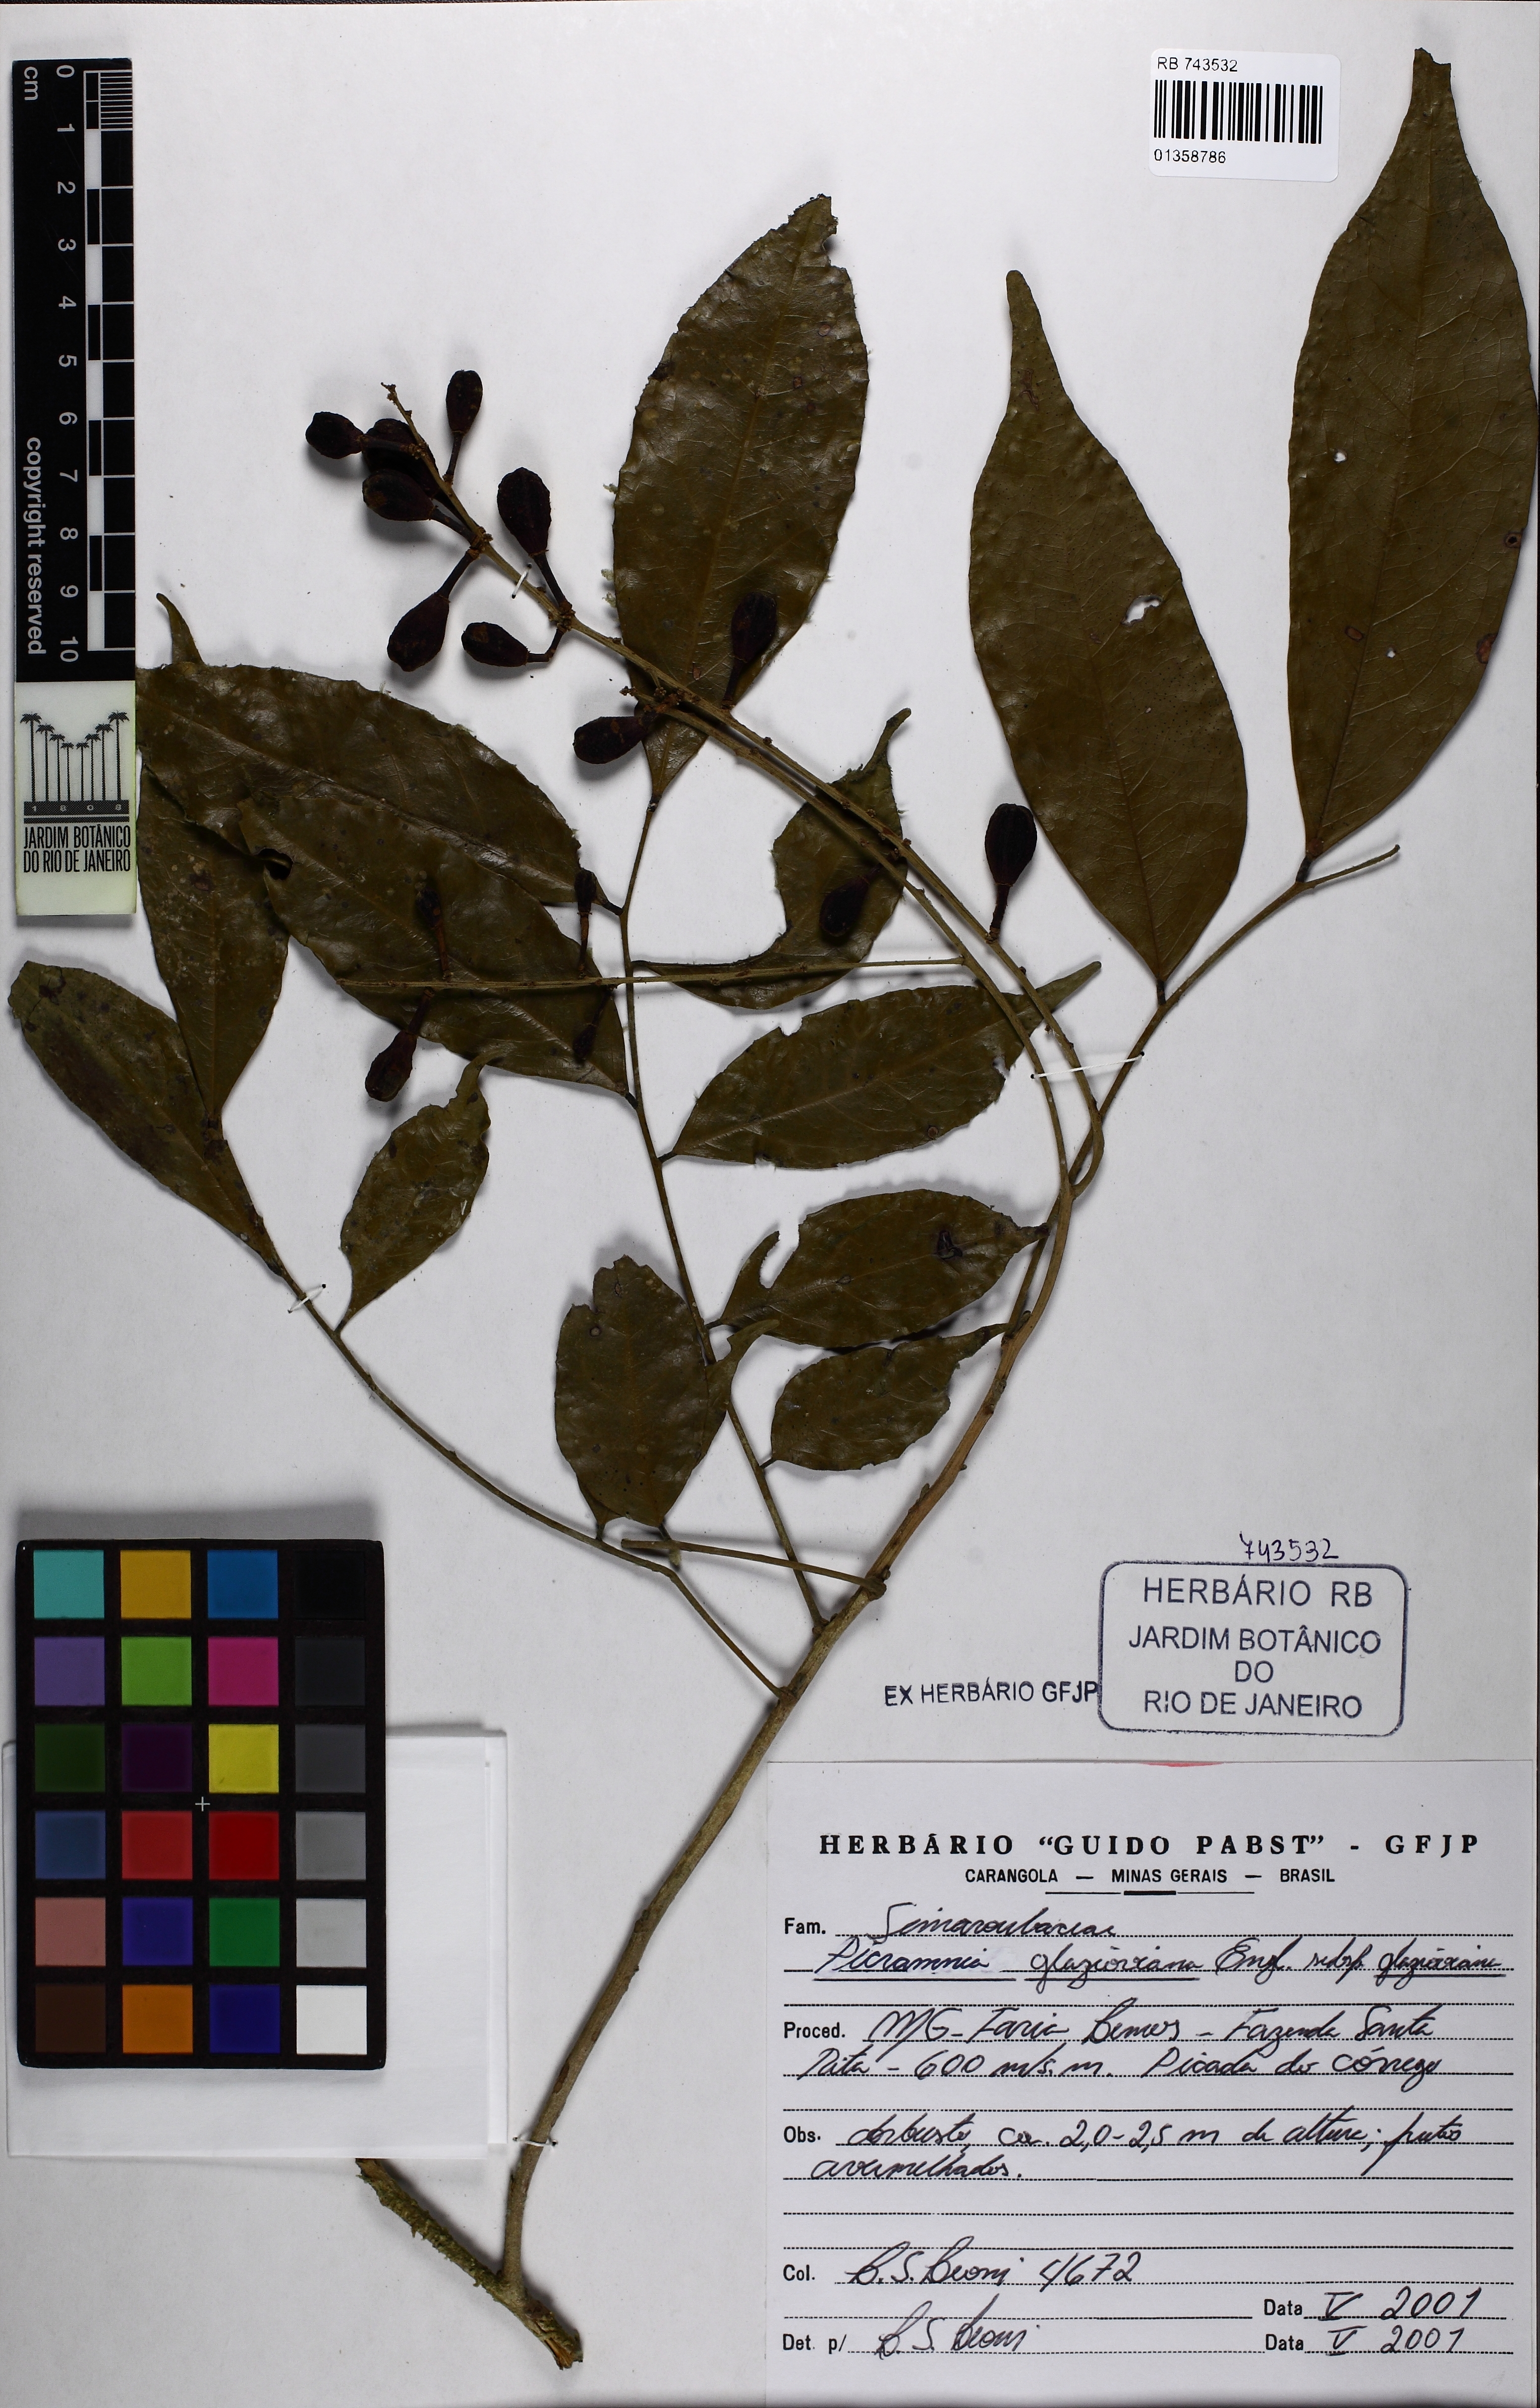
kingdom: Plantae
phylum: Tracheophyta
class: Magnoliopsida
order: Picramniales
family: Picramniaceae
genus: Picramnia
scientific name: Picramnia glazioviana
